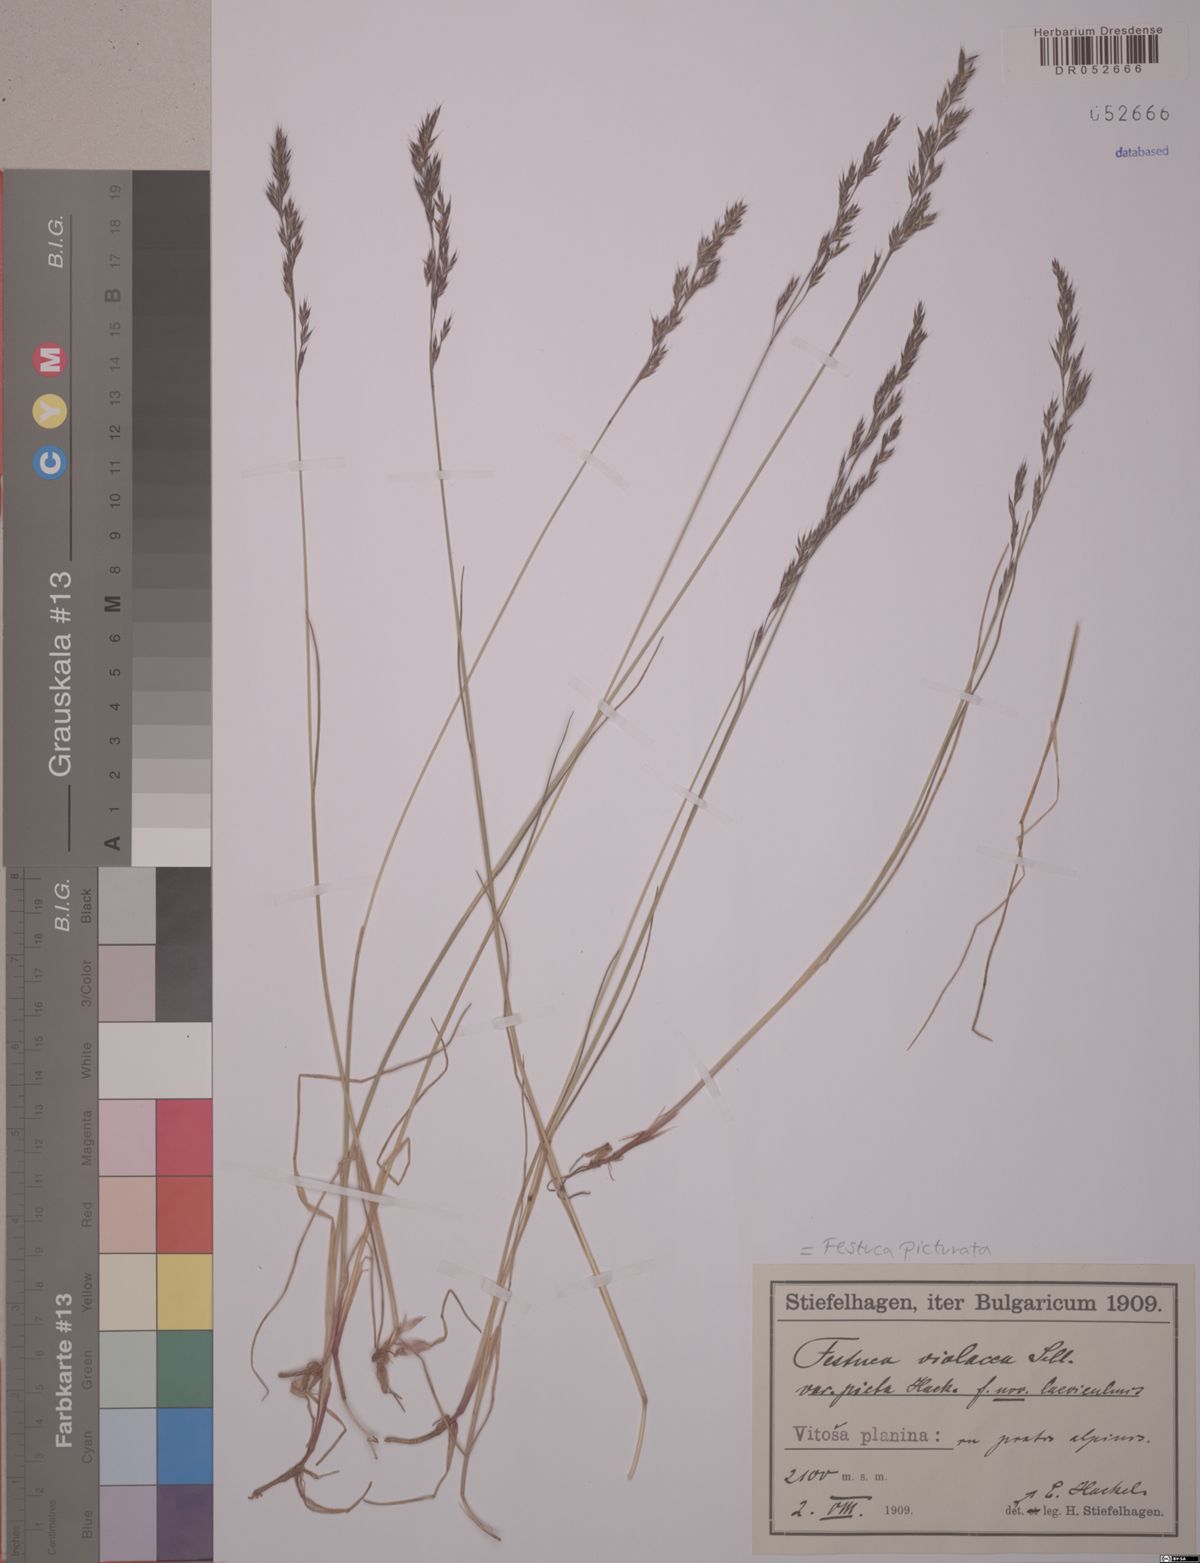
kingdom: Plantae
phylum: Tracheophyta
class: Liliopsida
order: Poales
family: Poaceae
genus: Festuca
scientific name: Festuca picturata
